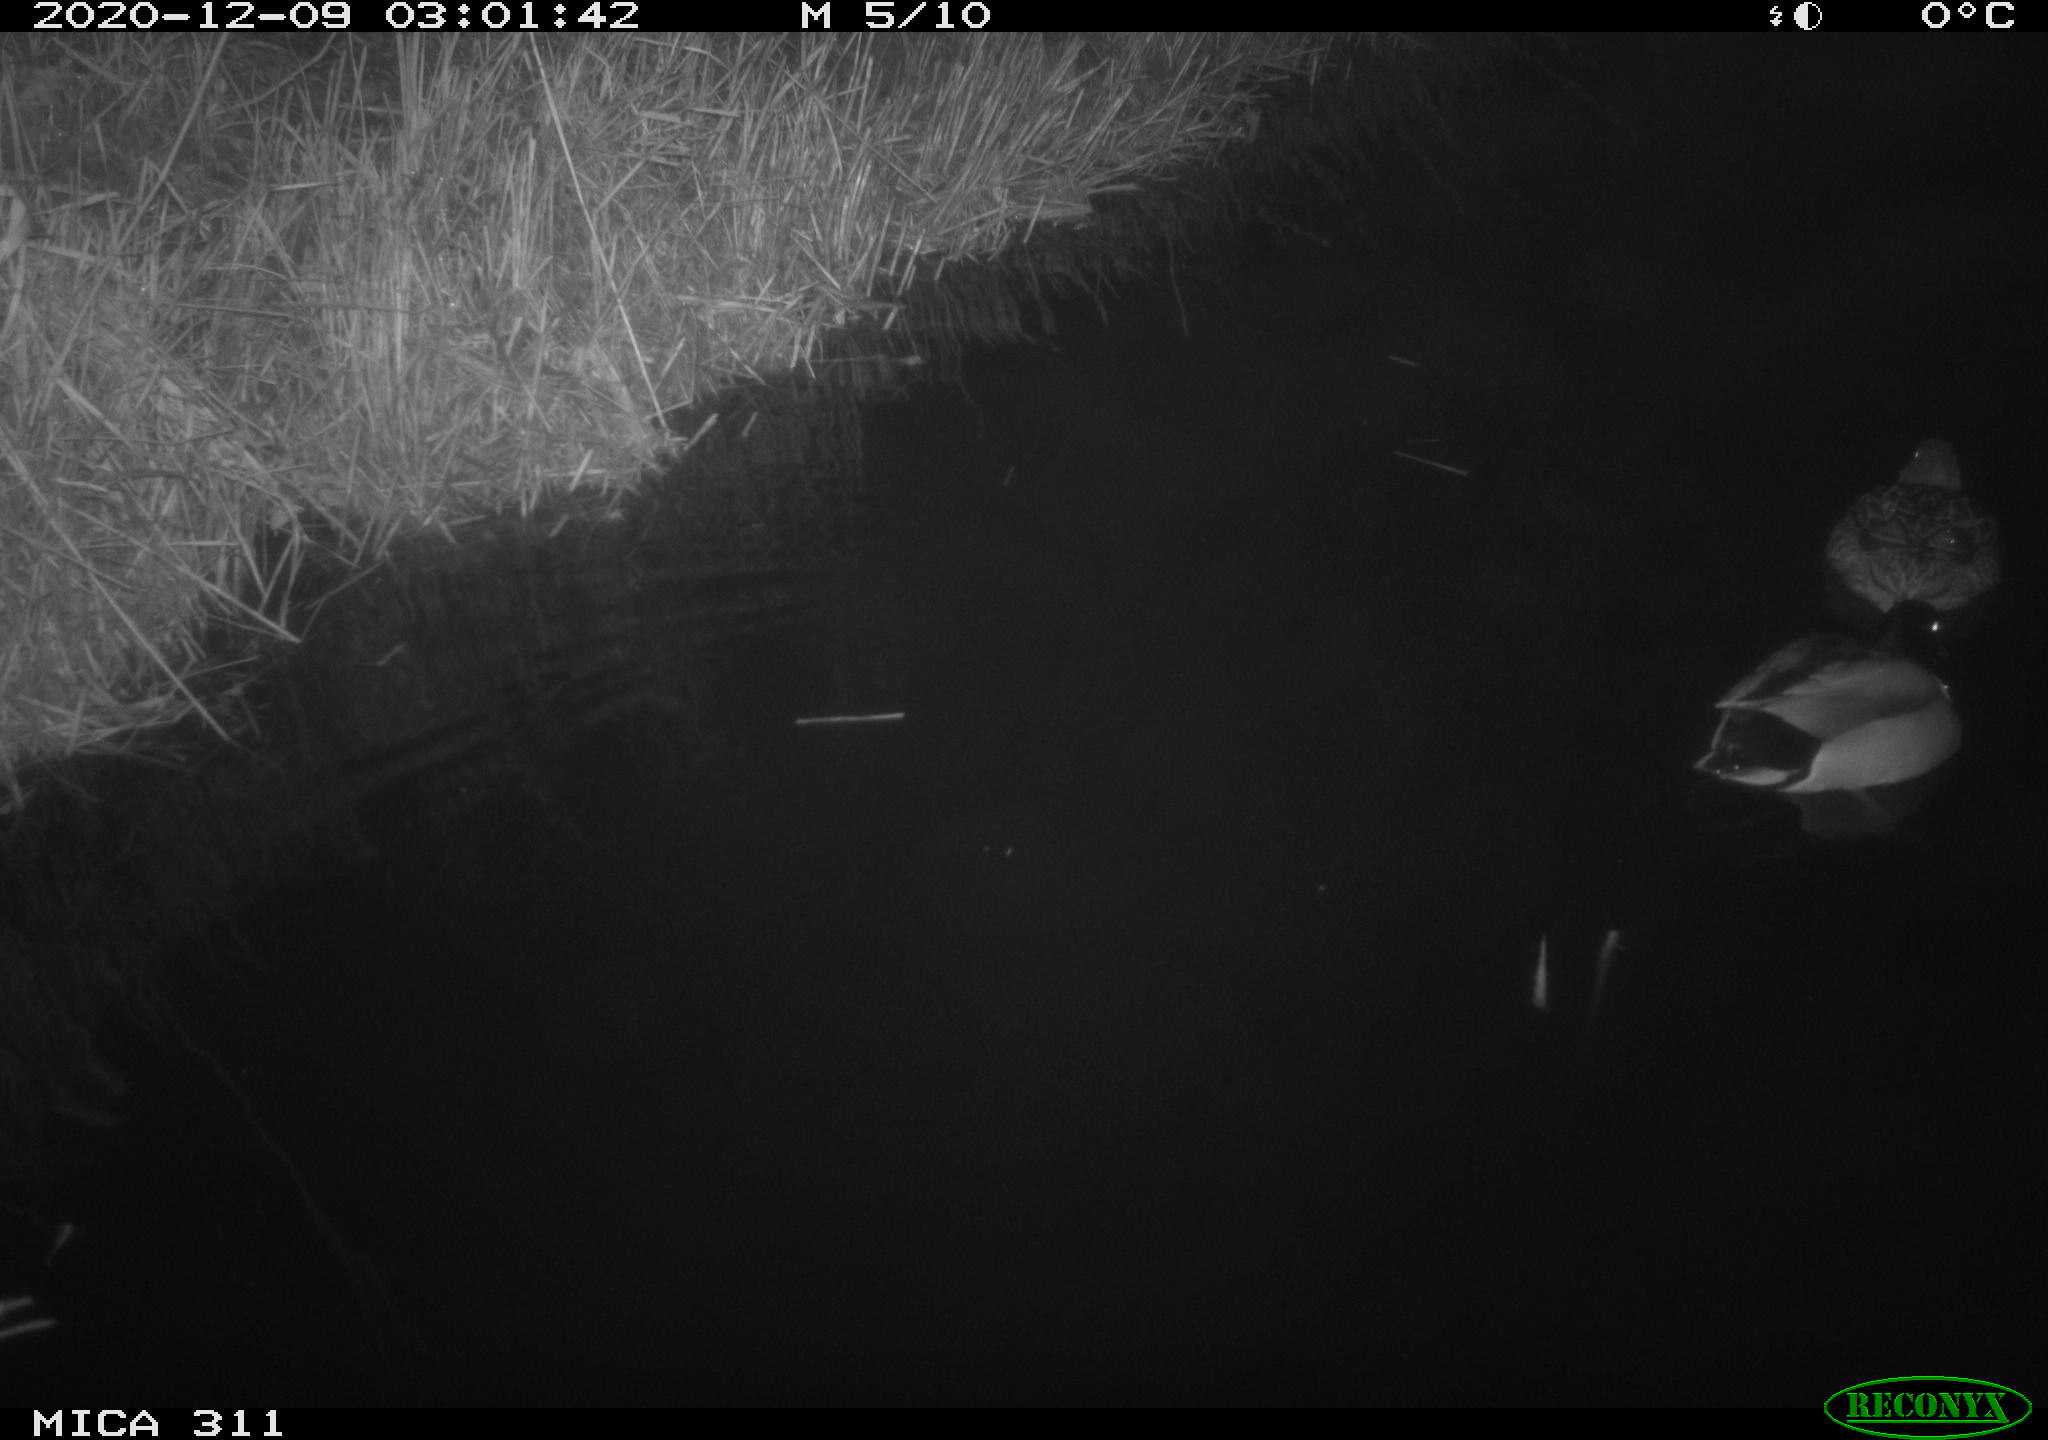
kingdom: Animalia
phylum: Chordata
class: Aves
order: Anseriformes
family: Anatidae
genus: Anas
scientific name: Anas platyrhynchos
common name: Mallard
